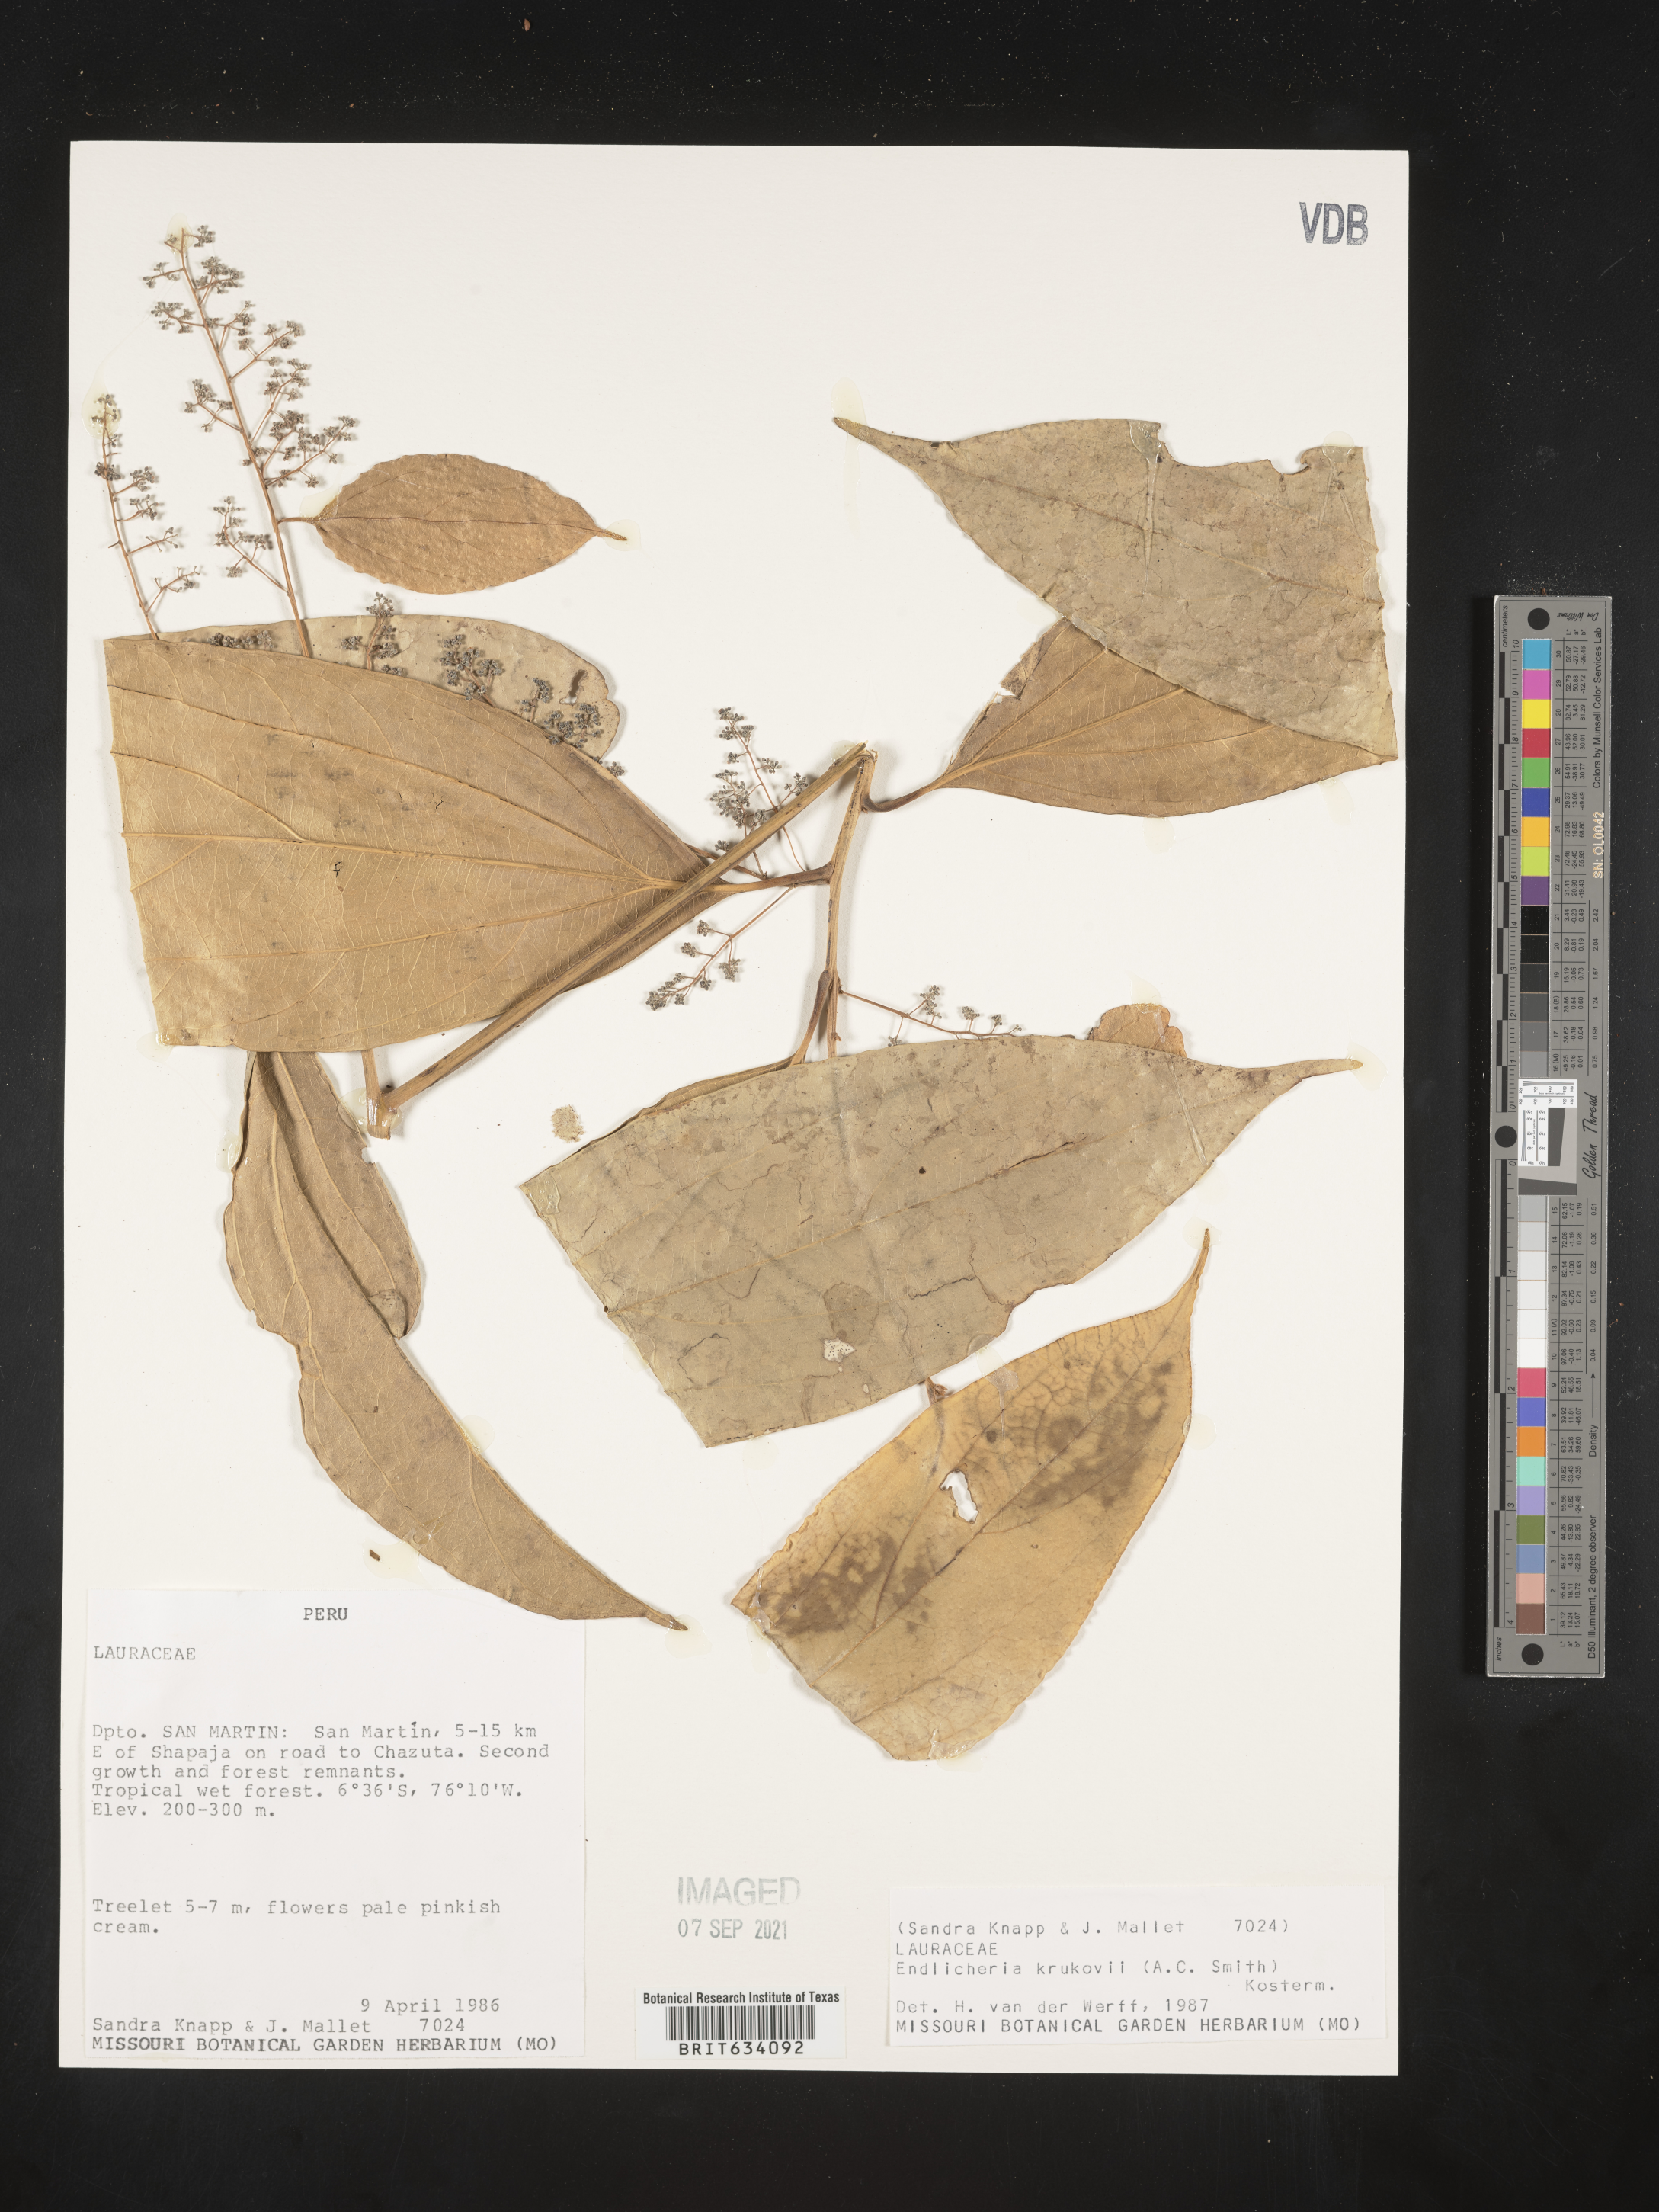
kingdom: Plantae
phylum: Tracheophyta
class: Magnoliopsida
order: Laurales
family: Lauraceae
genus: Endlicheria
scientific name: Endlicheria
